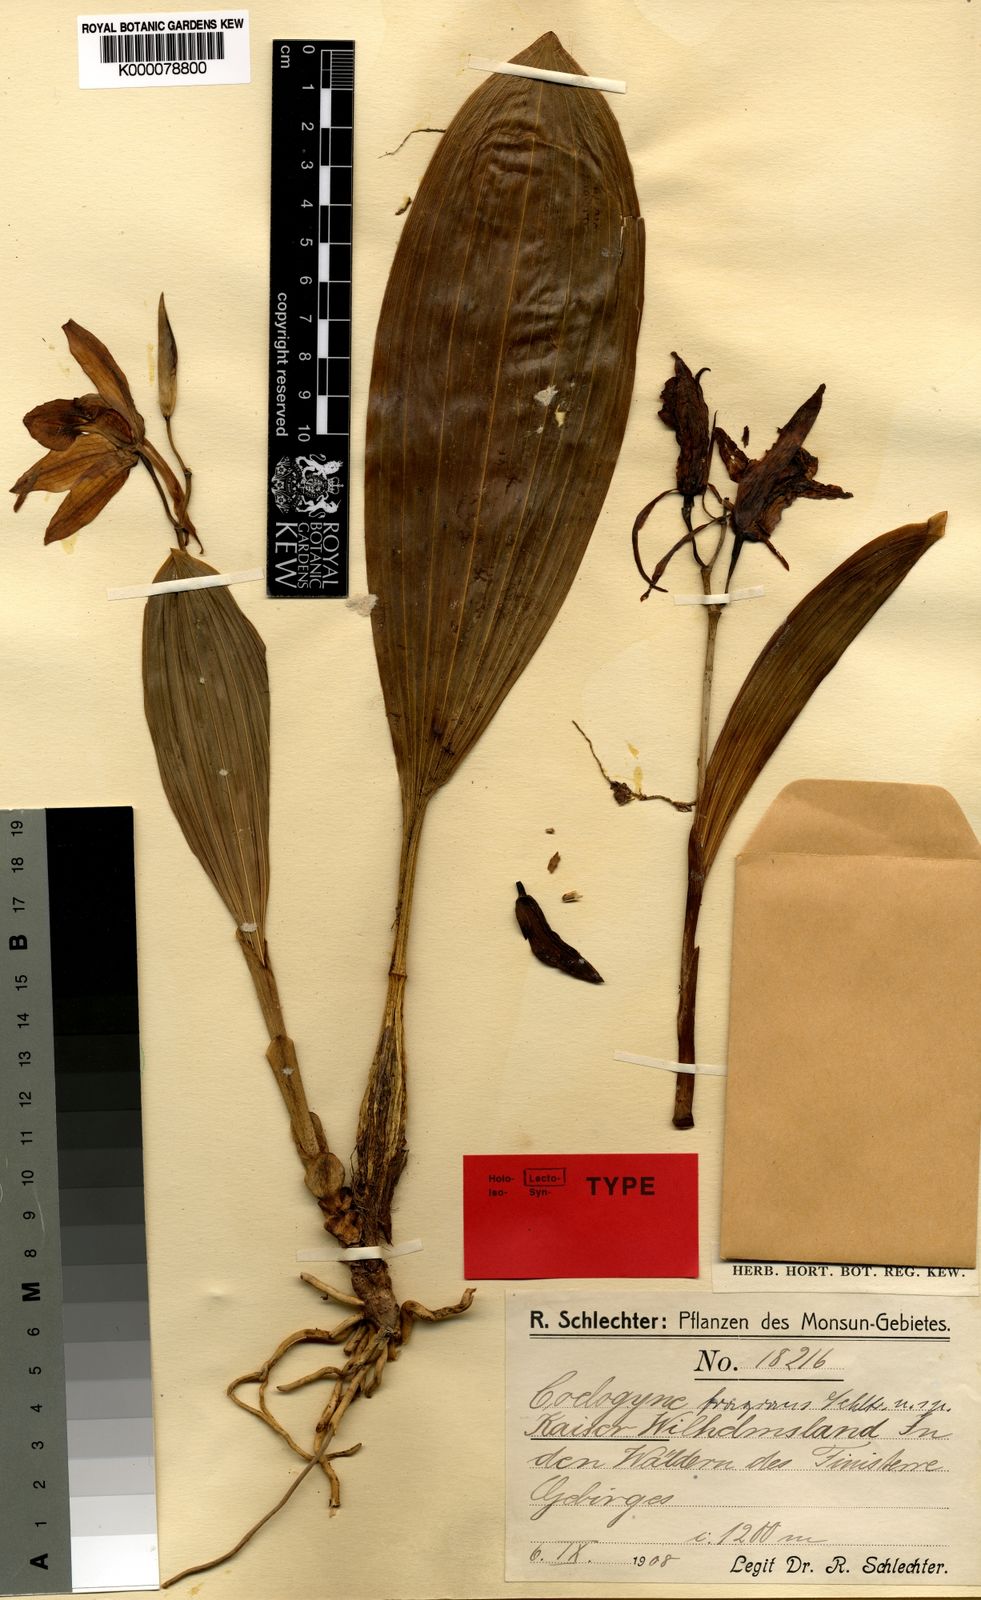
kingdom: Plantae
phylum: Tracheophyta
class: Liliopsida
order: Asparagales
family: Orchidaceae
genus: Coelogyne
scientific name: Coelogyne fragrans
